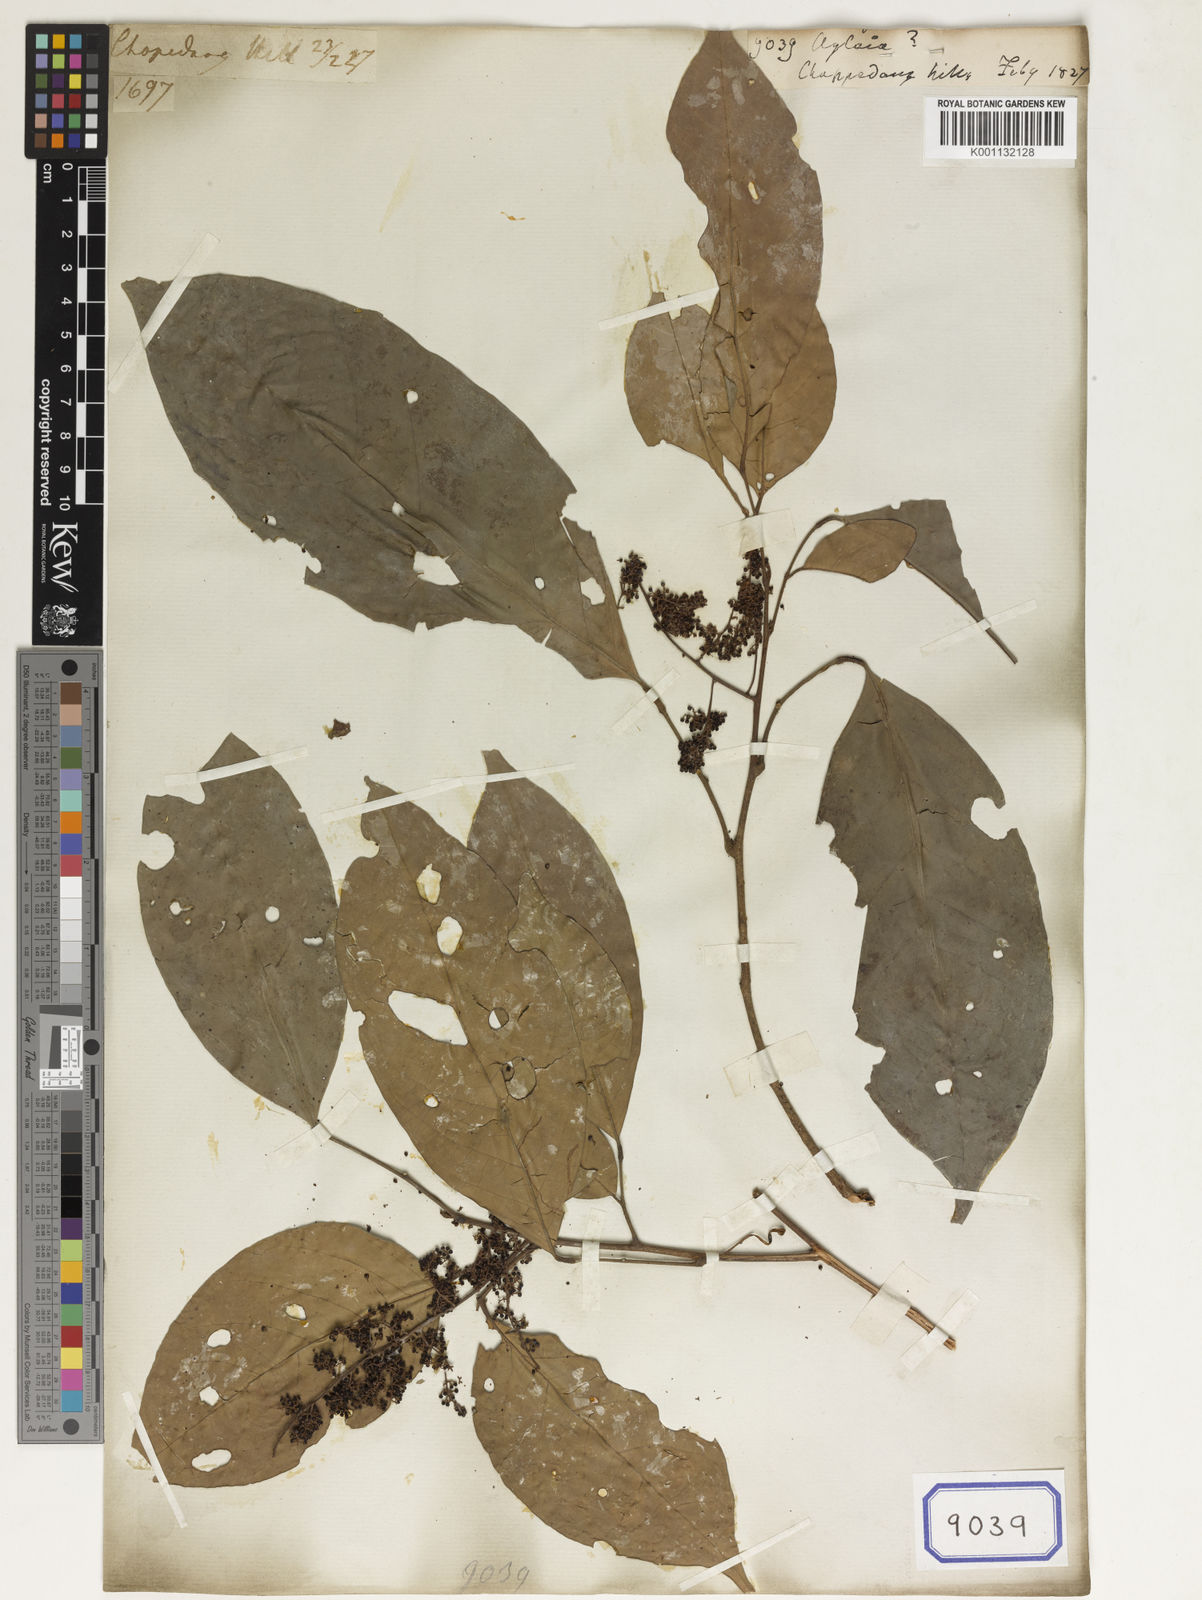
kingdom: Plantae
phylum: Tracheophyta
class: Magnoliopsida
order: Sapindales
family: Meliaceae
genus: Aglaia
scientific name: Aglaia
